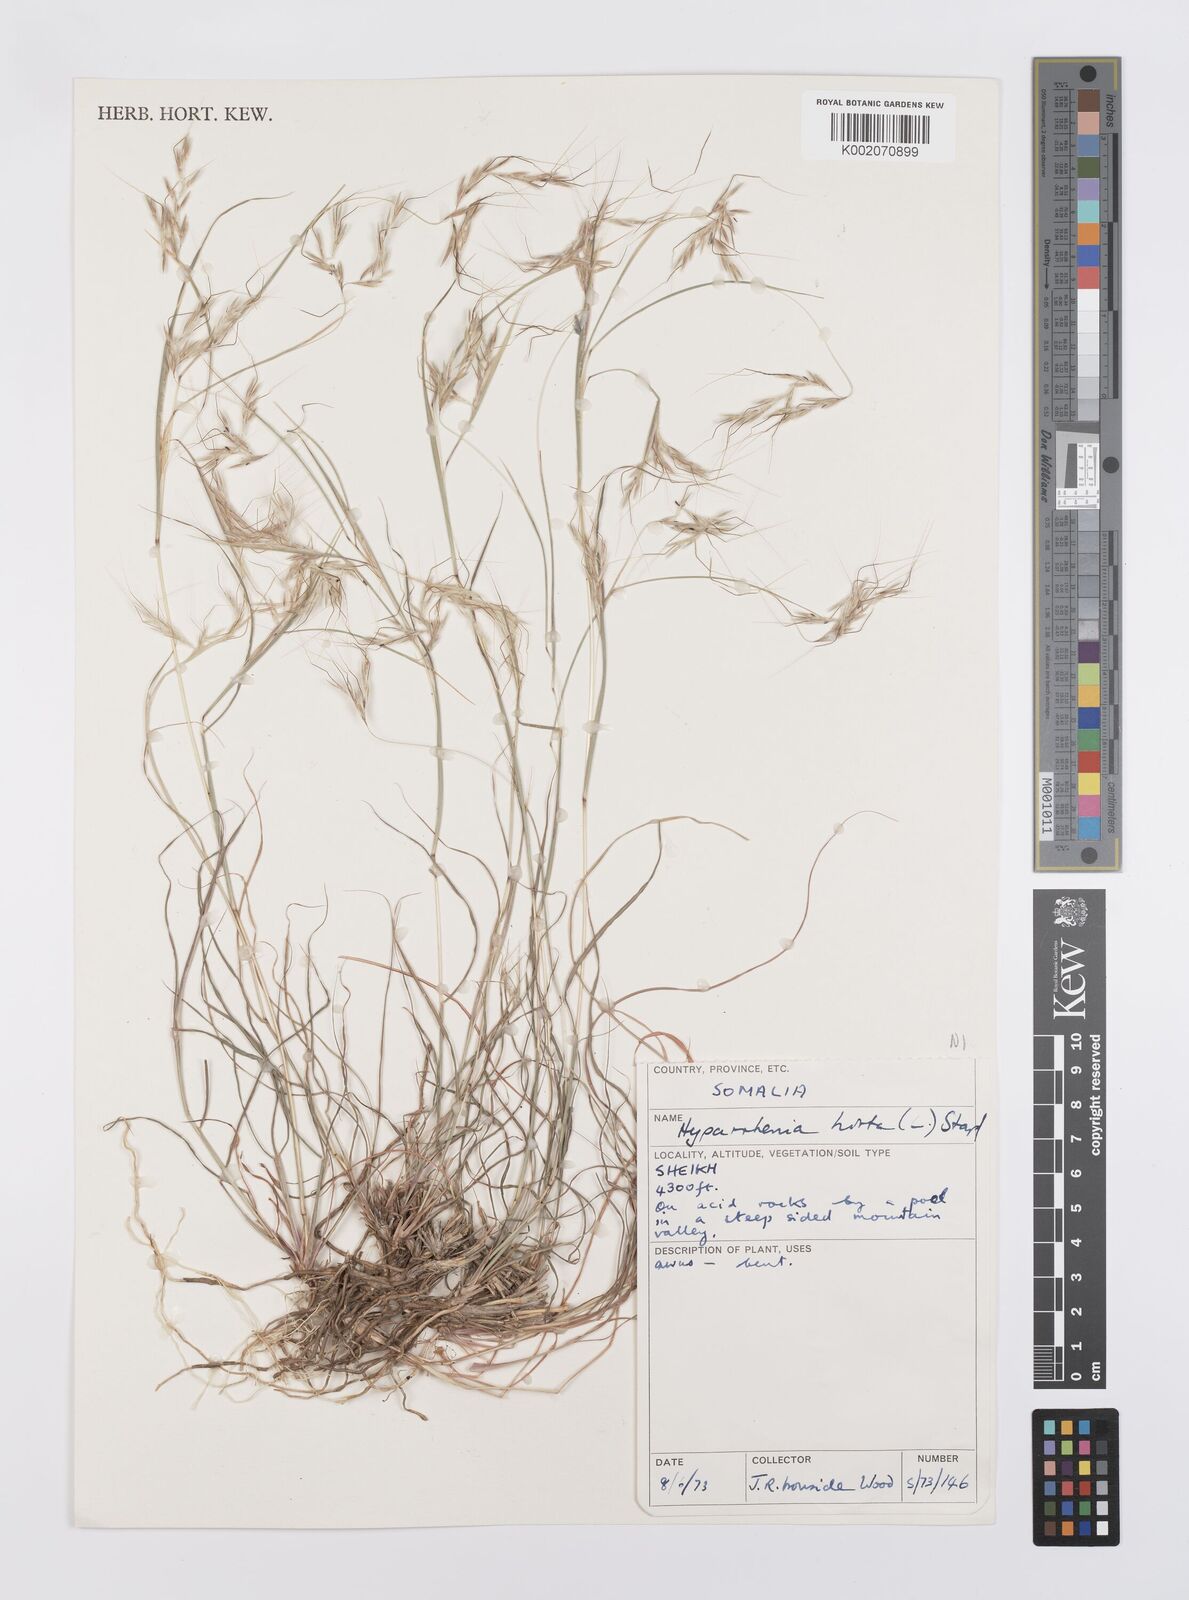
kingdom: Plantae
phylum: Tracheophyta
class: Liliopsida
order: Poales
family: Poaceae
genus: Hyparrhenia
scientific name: Hyparrhenia hirta
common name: Thatching grass
